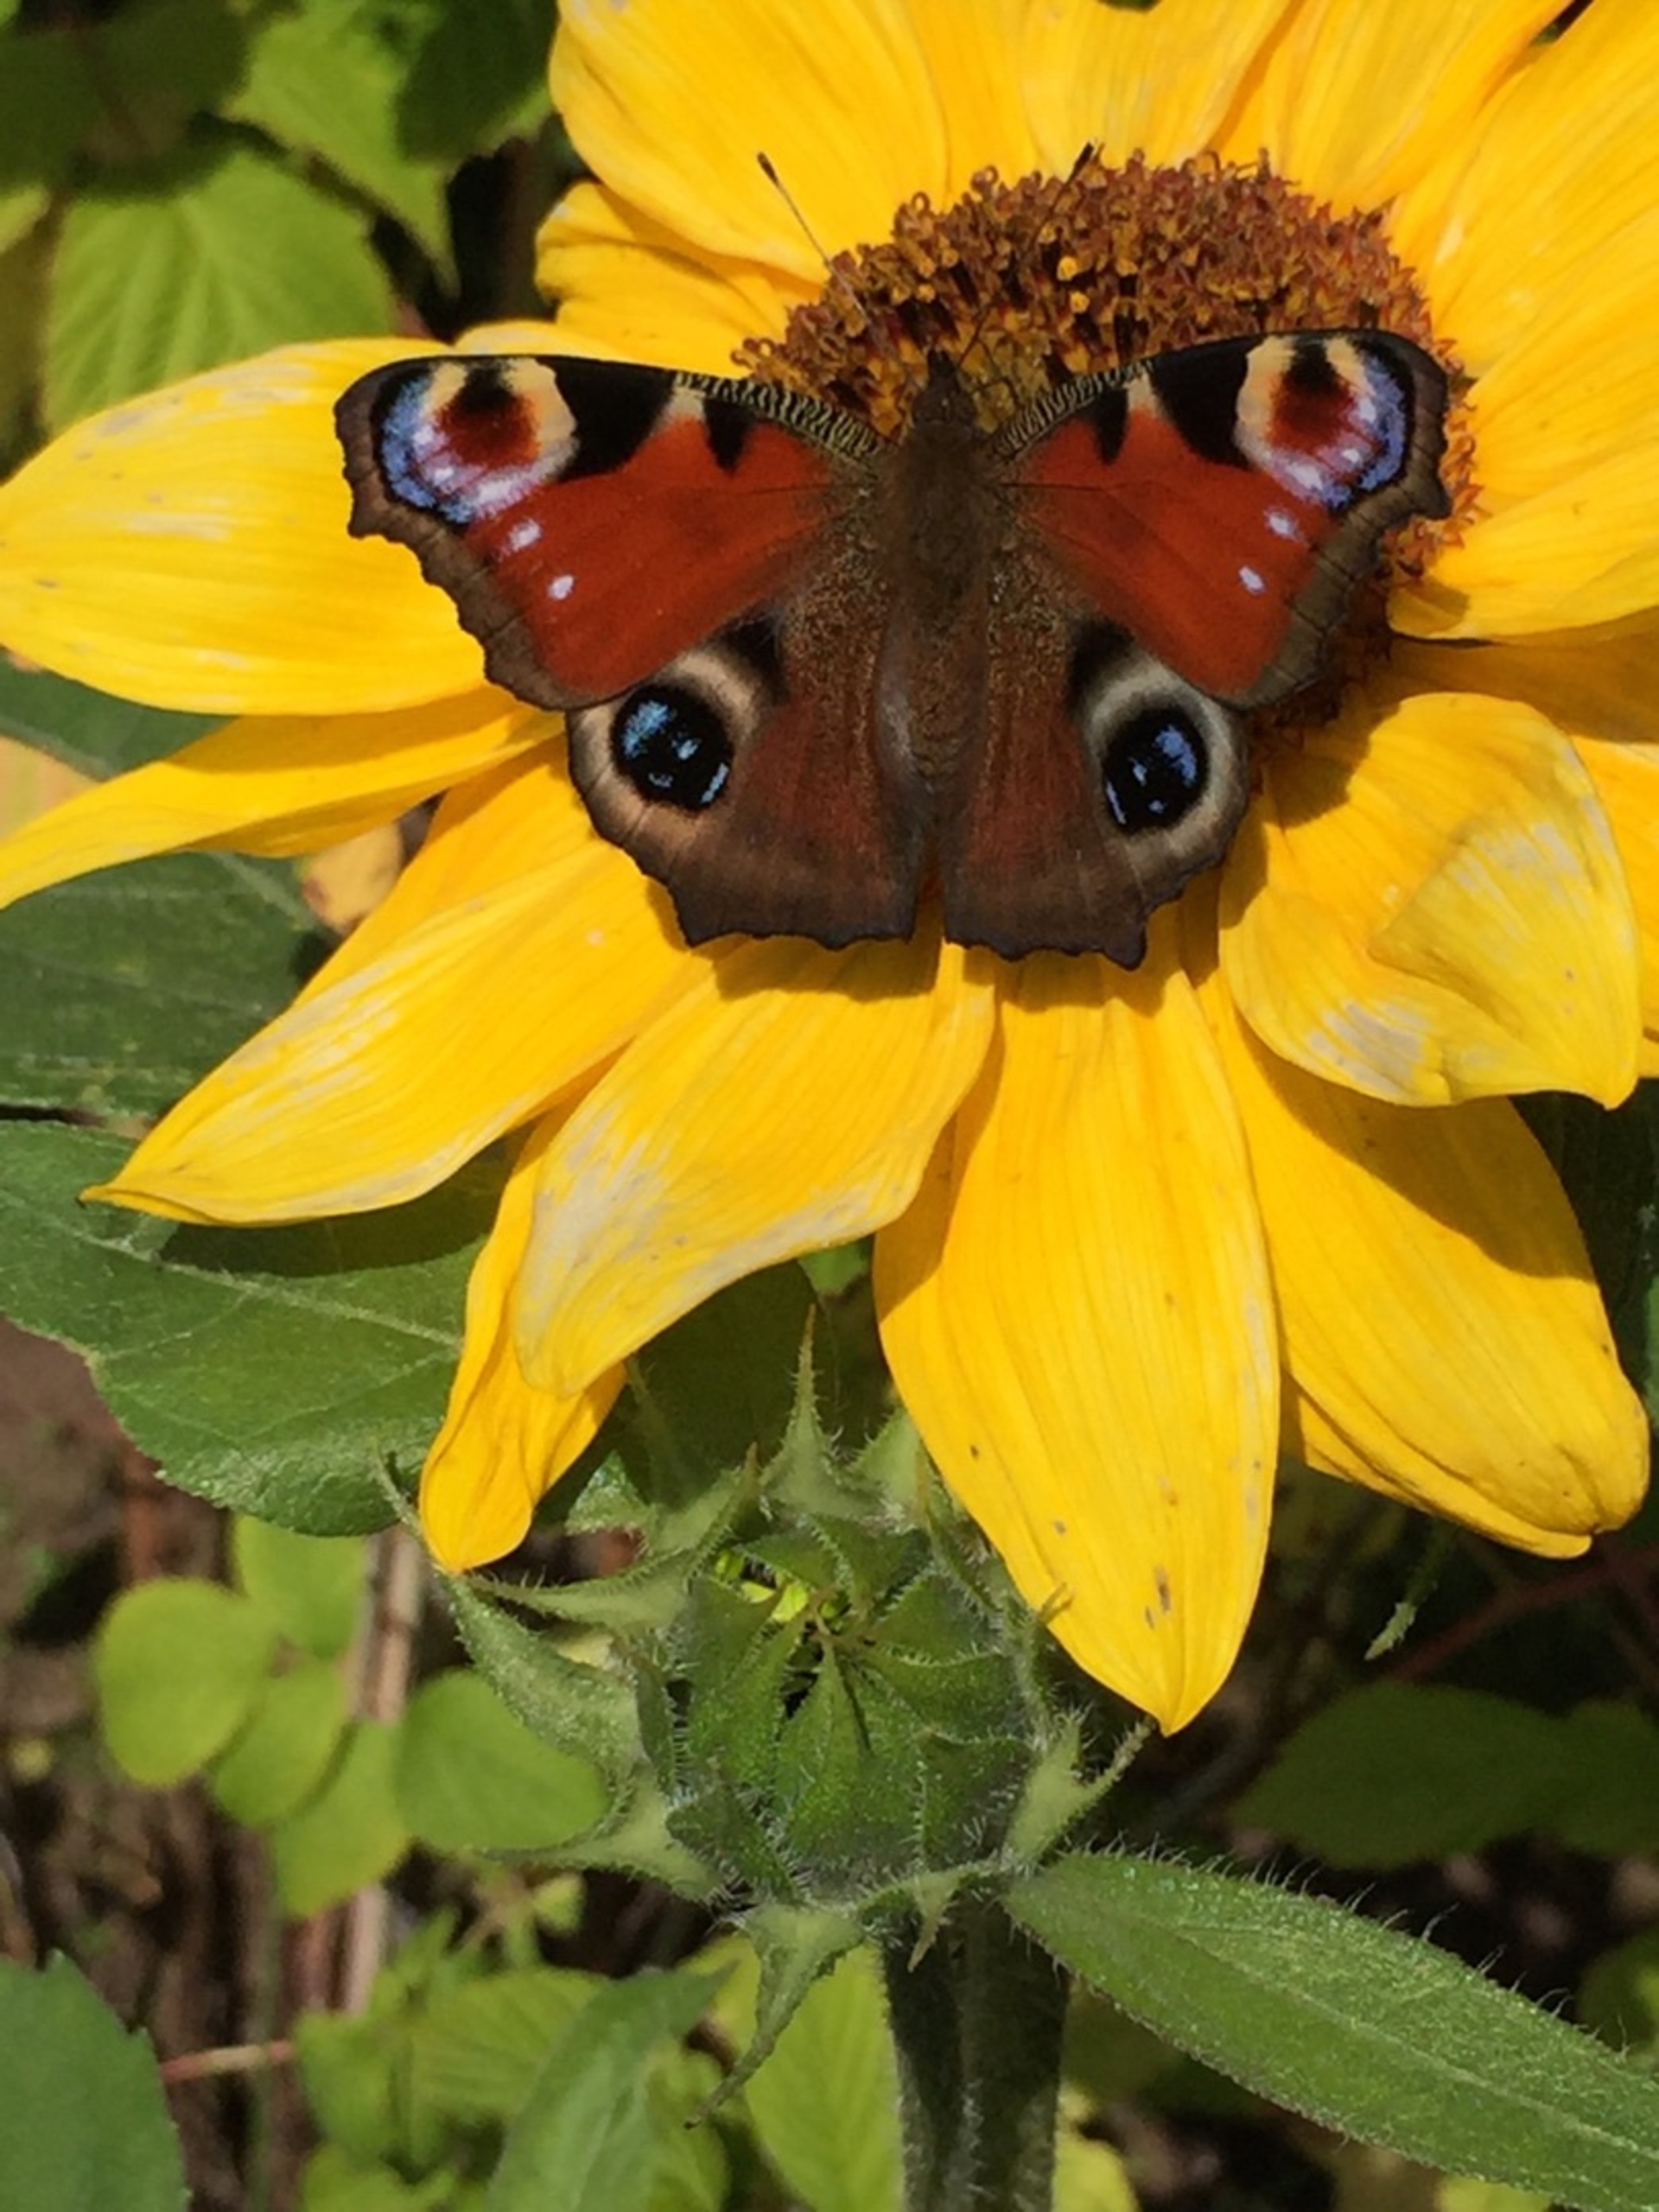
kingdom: Animalia
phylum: Arthropoda
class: Insecta
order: Lepidoptera
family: Nymphalidae
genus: Aglais
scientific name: Aglais io
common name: Dagpåfugleøje
